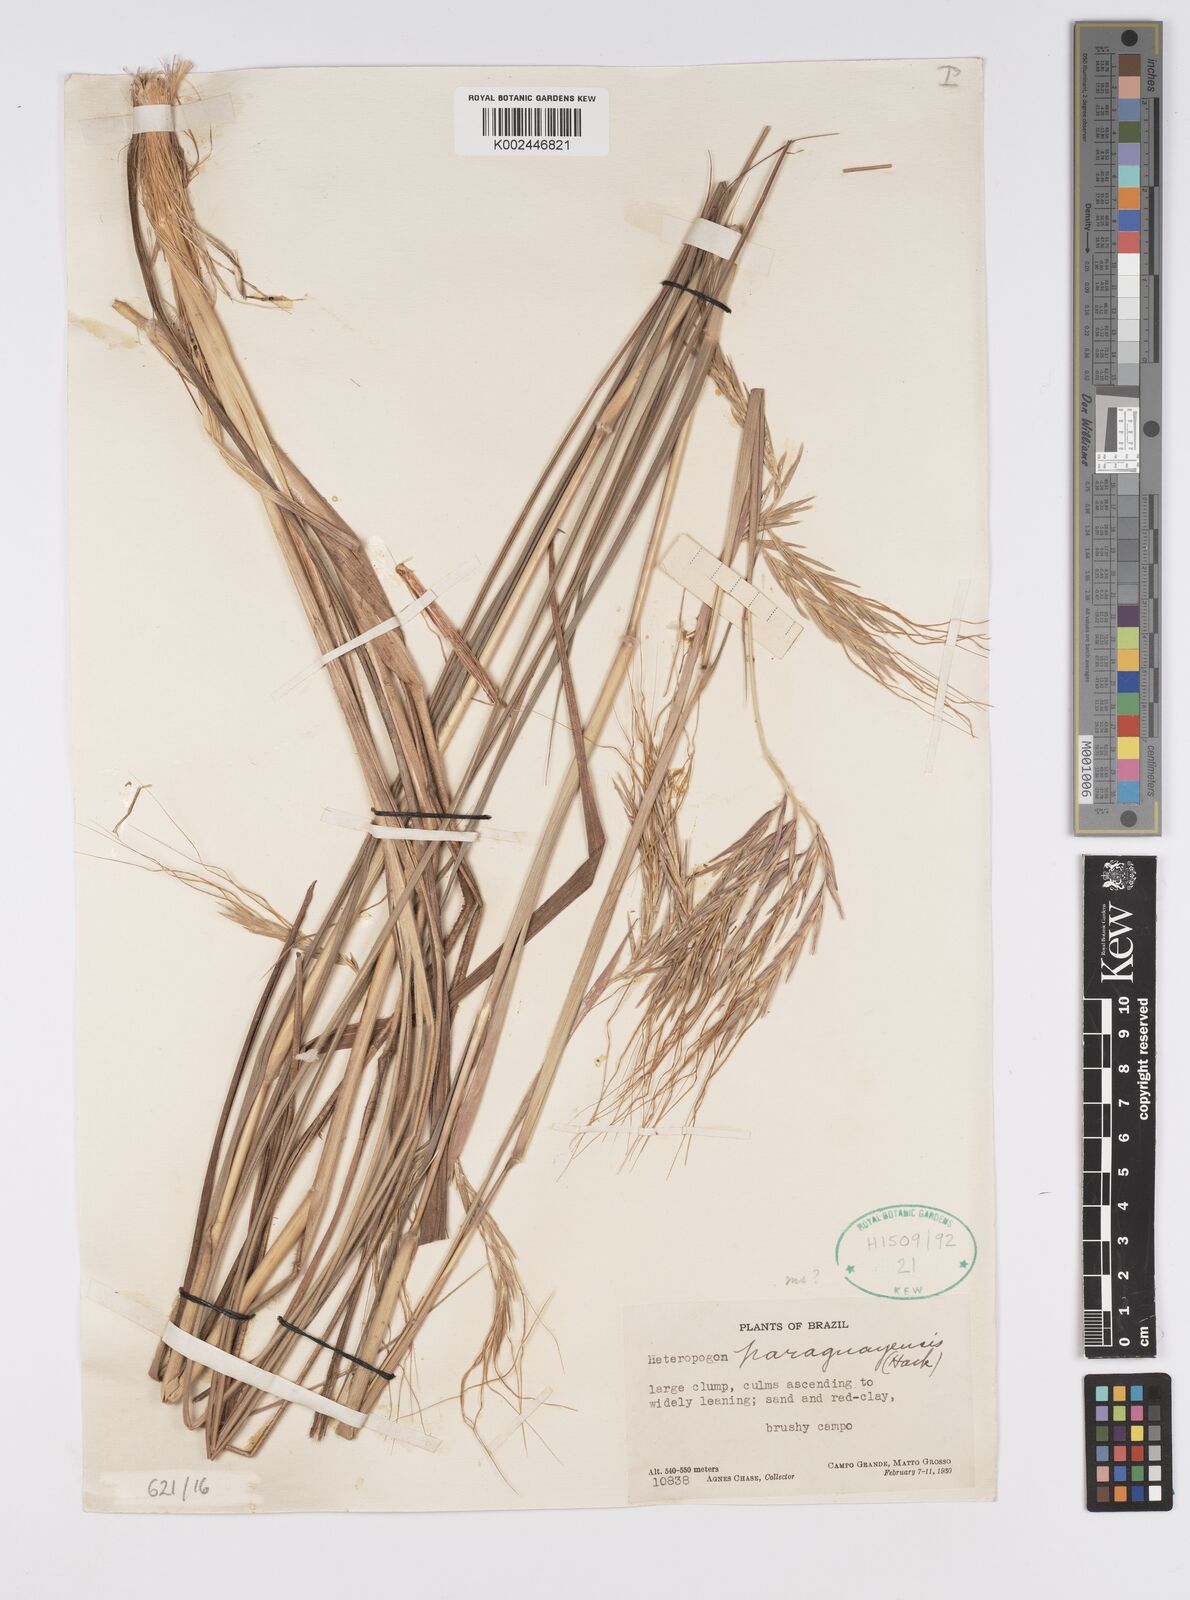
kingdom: Plantae
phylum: Tracheophyta
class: Liliopsida
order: Poales
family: Poaceae
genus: Agenium
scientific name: Agenium majus
